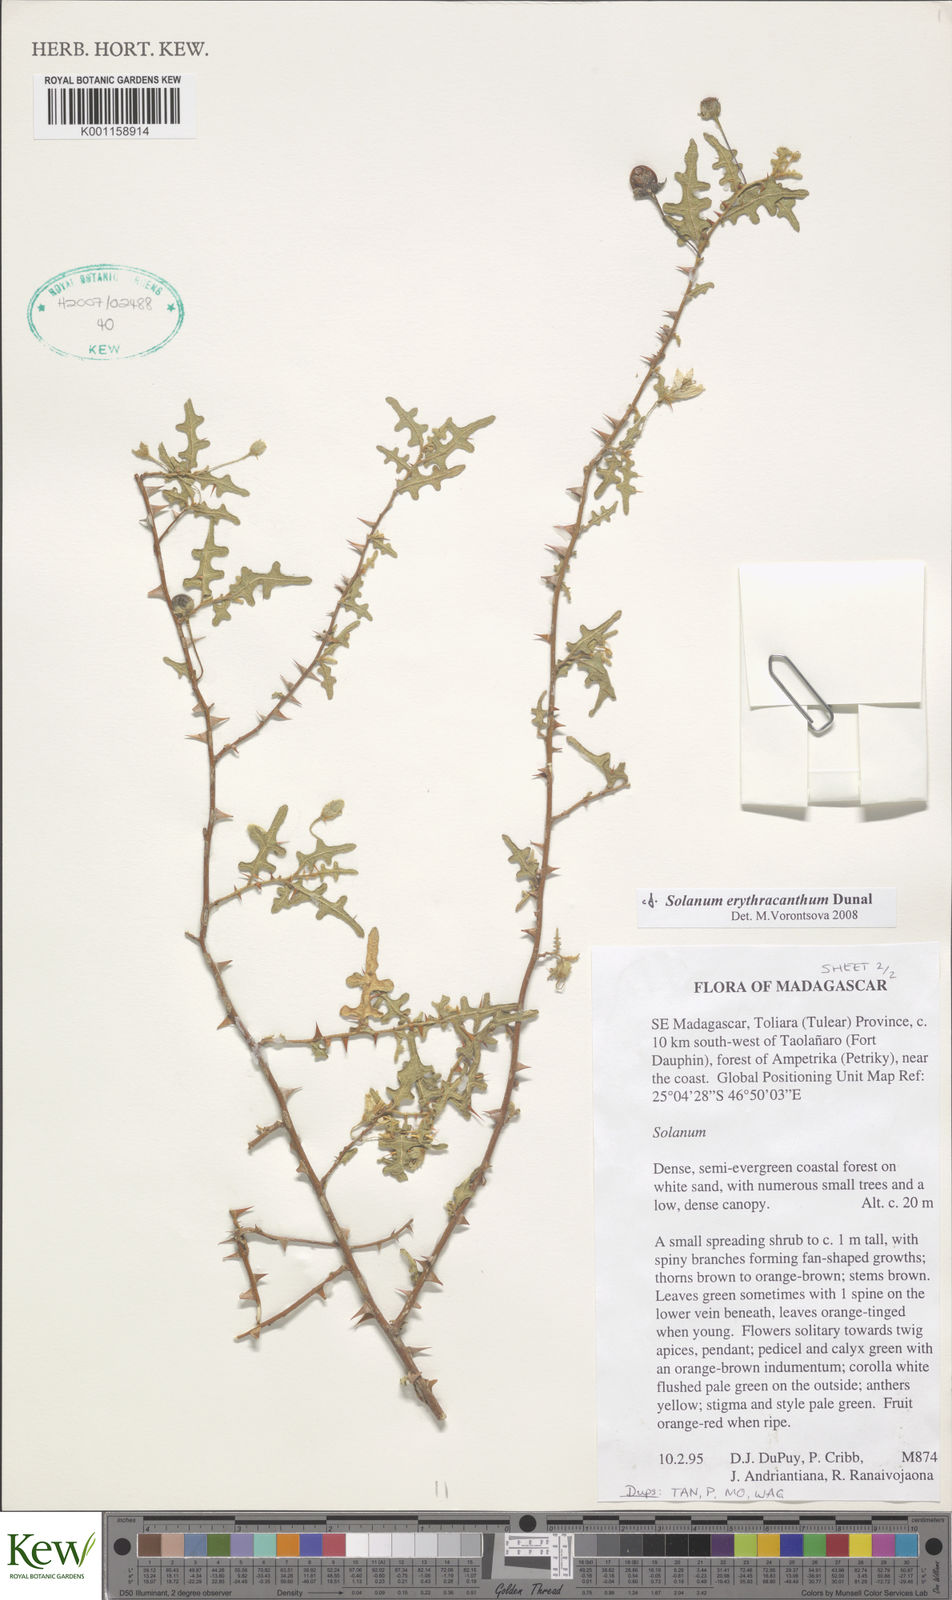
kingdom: Plantae
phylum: Tracheophyta
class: Magnoliopsida
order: Solanales
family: Solanaceae
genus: Solanum
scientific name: Solanum erythracanthum
